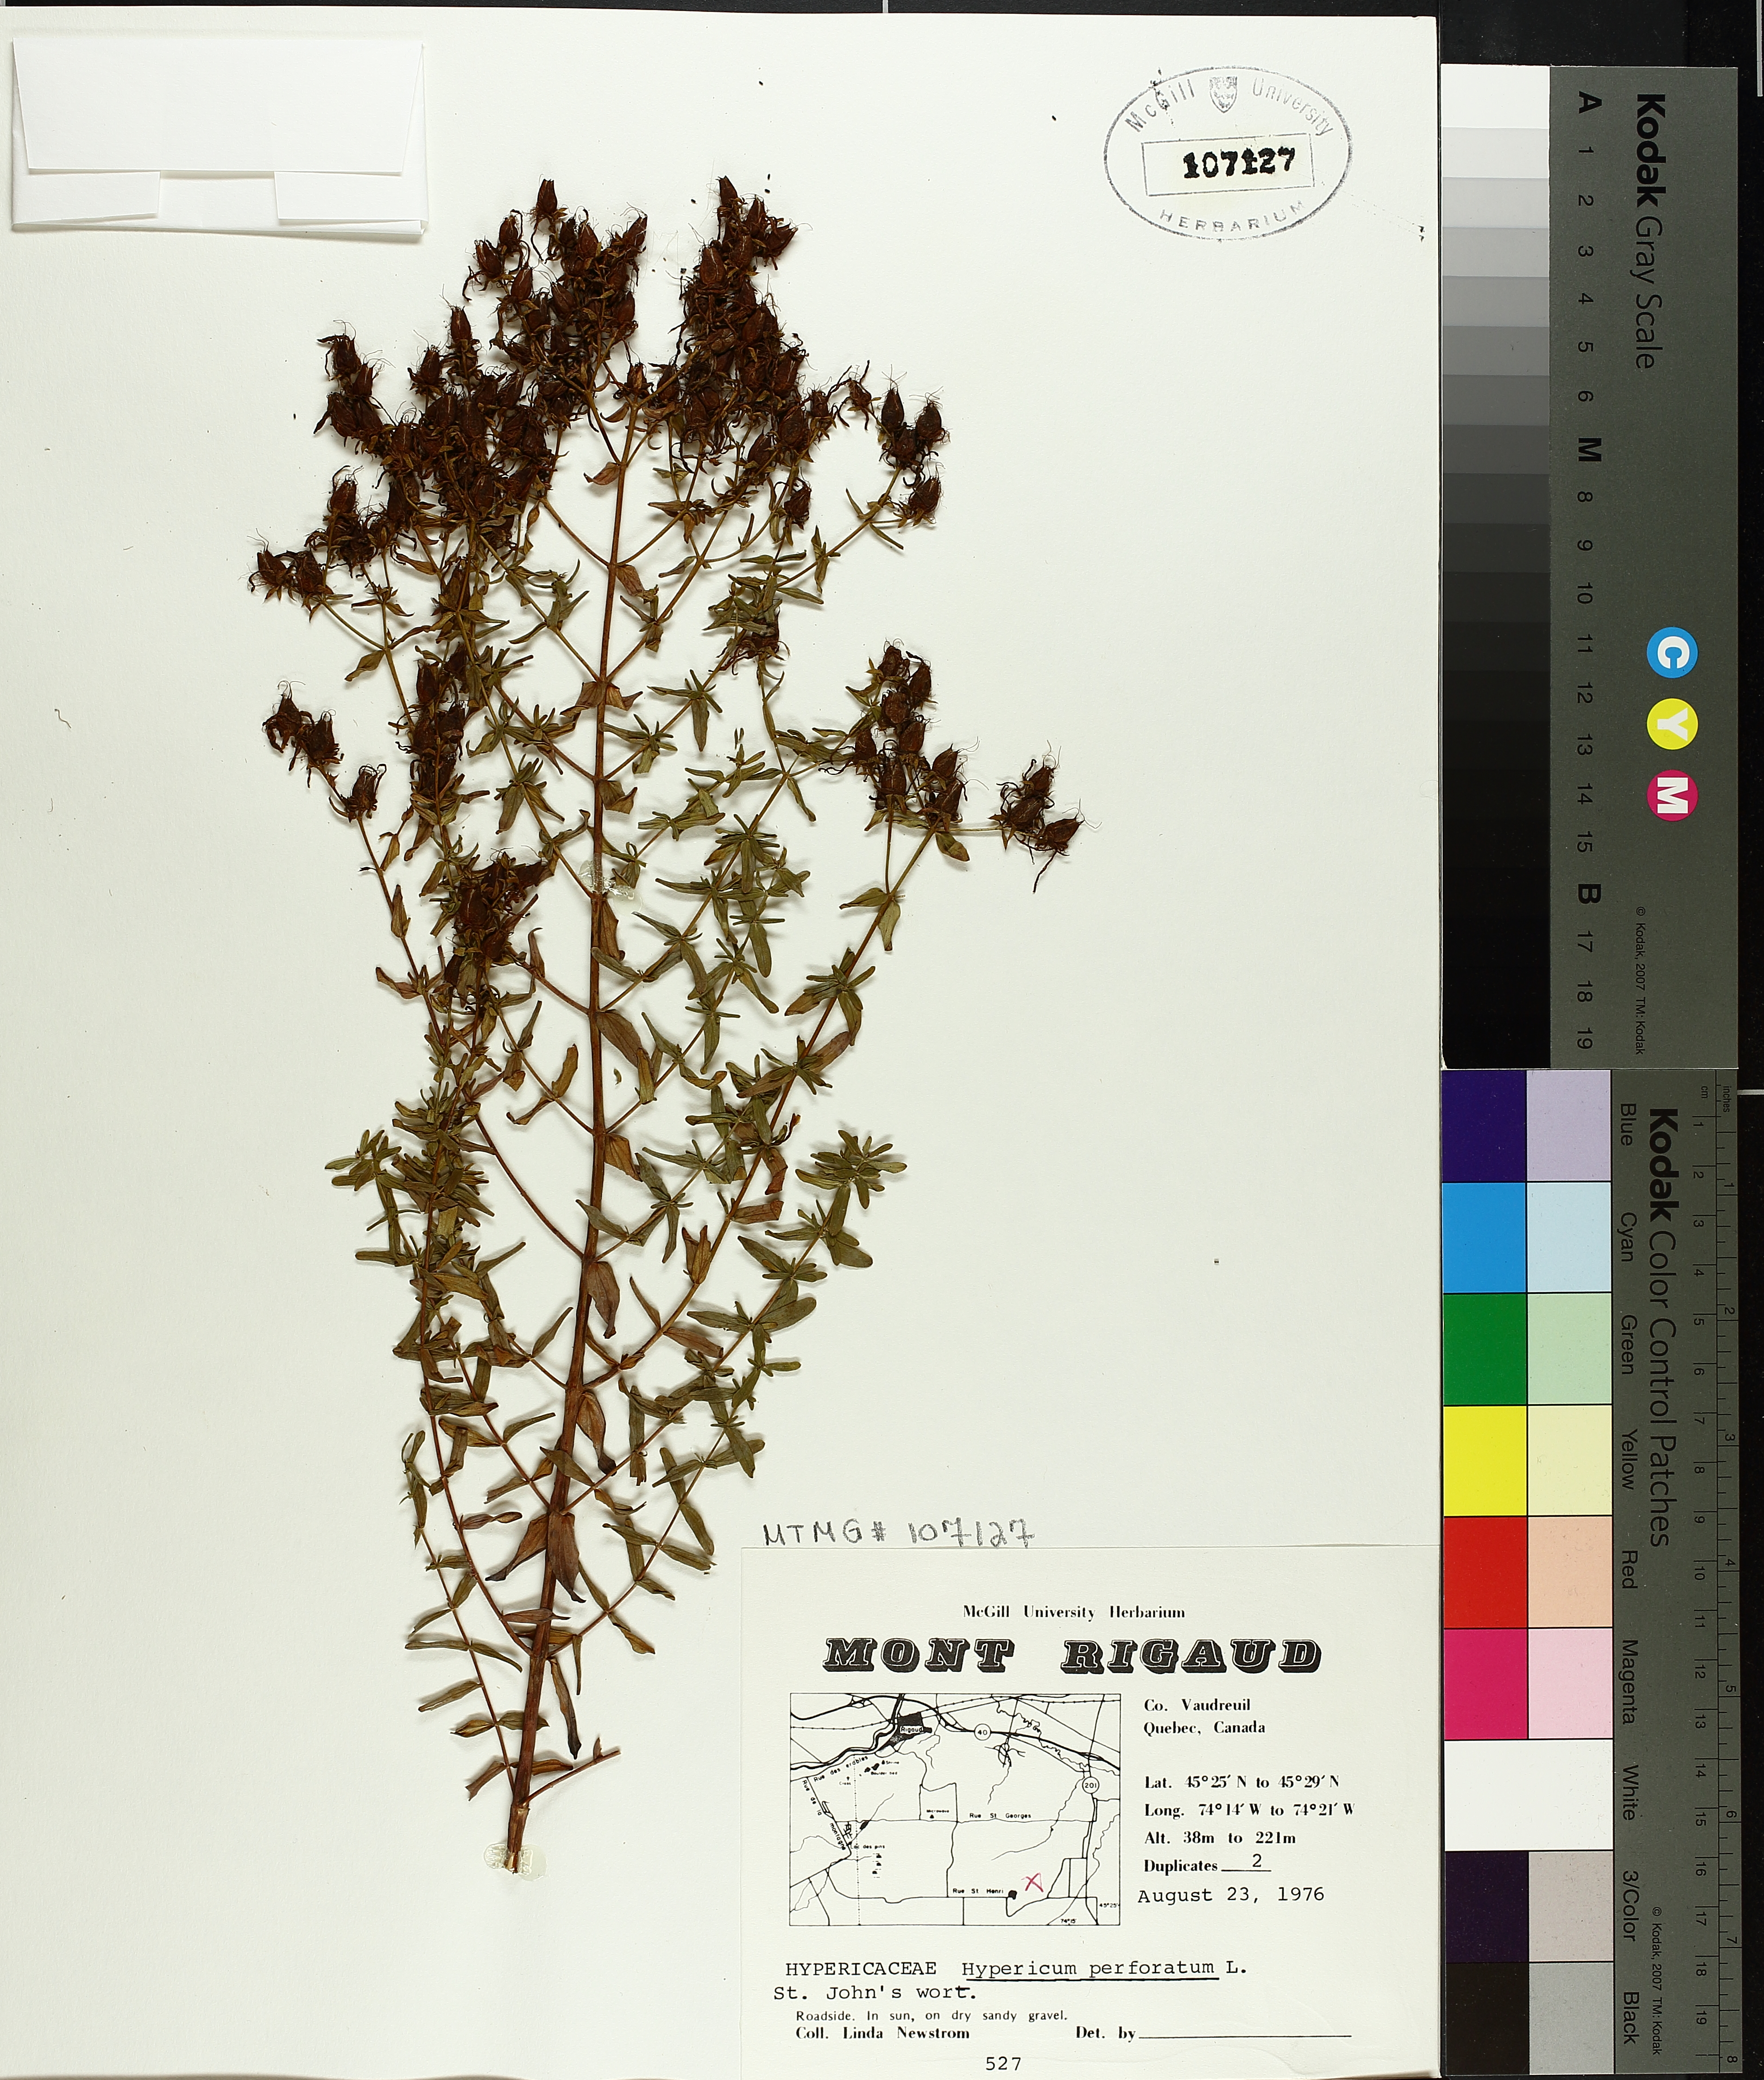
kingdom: Plantae
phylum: Tracheophyta
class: Magnoliopsida
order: Malpighiales
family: Hypericaceae
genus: Hypericum
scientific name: Hypericum perforatum
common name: Common st. johnswort
